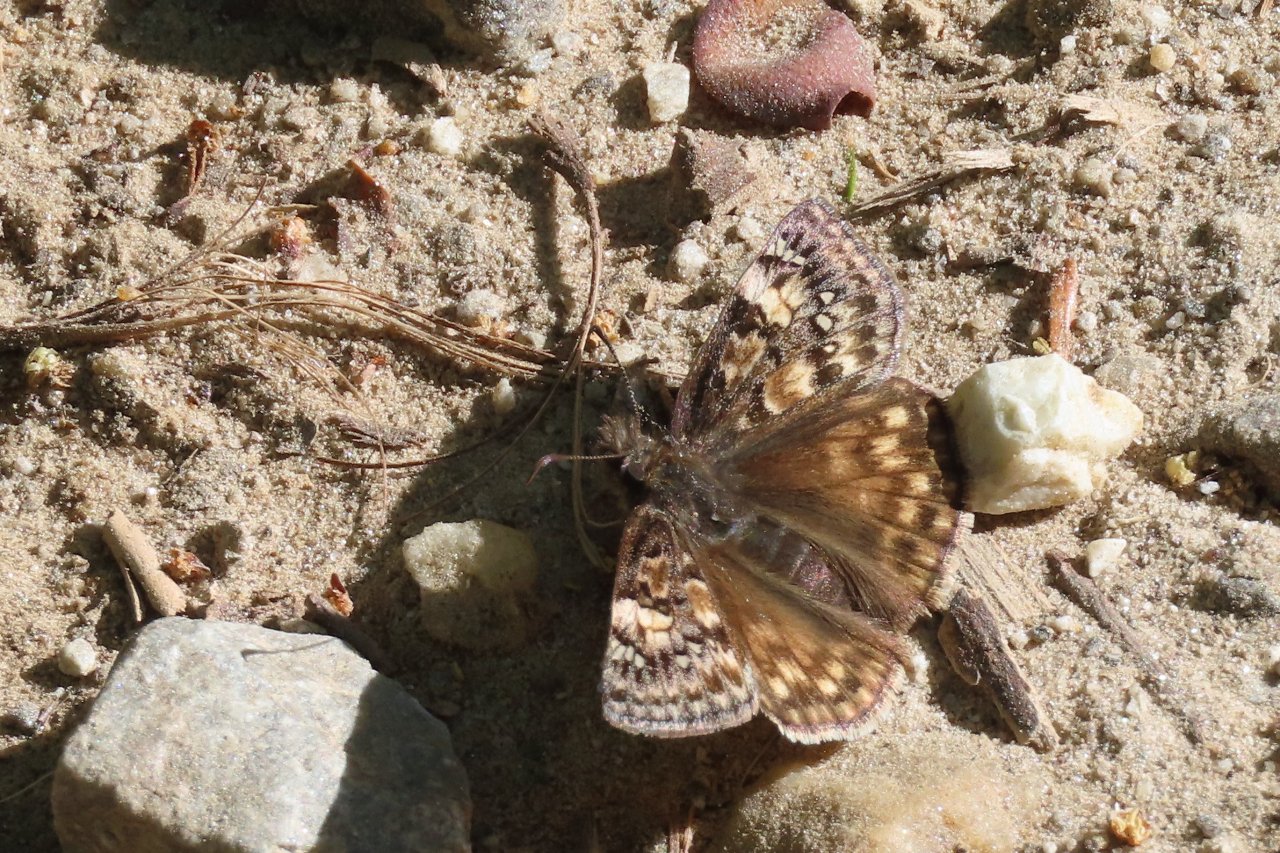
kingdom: Animalia
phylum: Arthropoda
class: Insecta
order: Lepidoptera
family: Hesperiidae
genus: Gesta
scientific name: Gesta
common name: Juvenal's Duskywing
